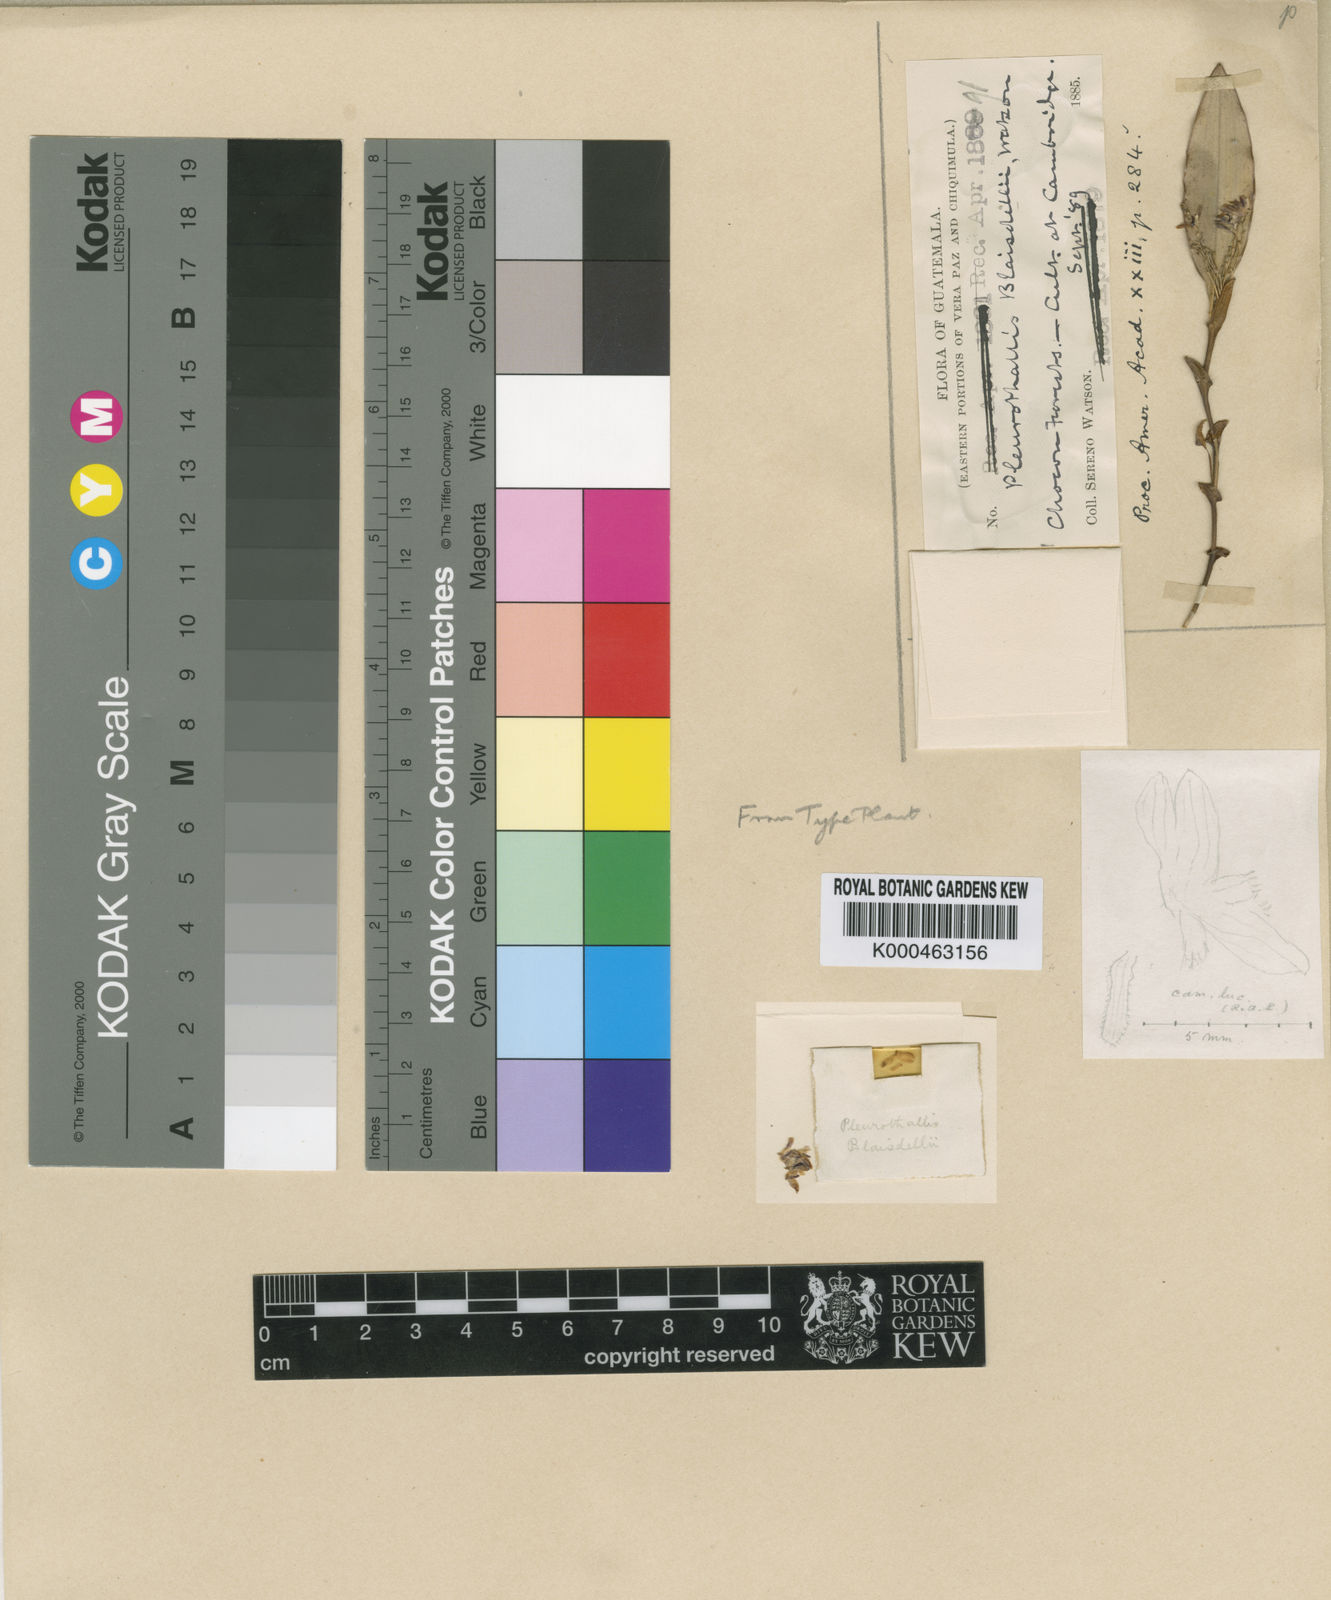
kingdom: Plantae
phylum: Tracheophyta
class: Liliopsida
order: Asparagales
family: Orchidaceae
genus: Trichosalpinx
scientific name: Trichosalpinx blaisdellii
